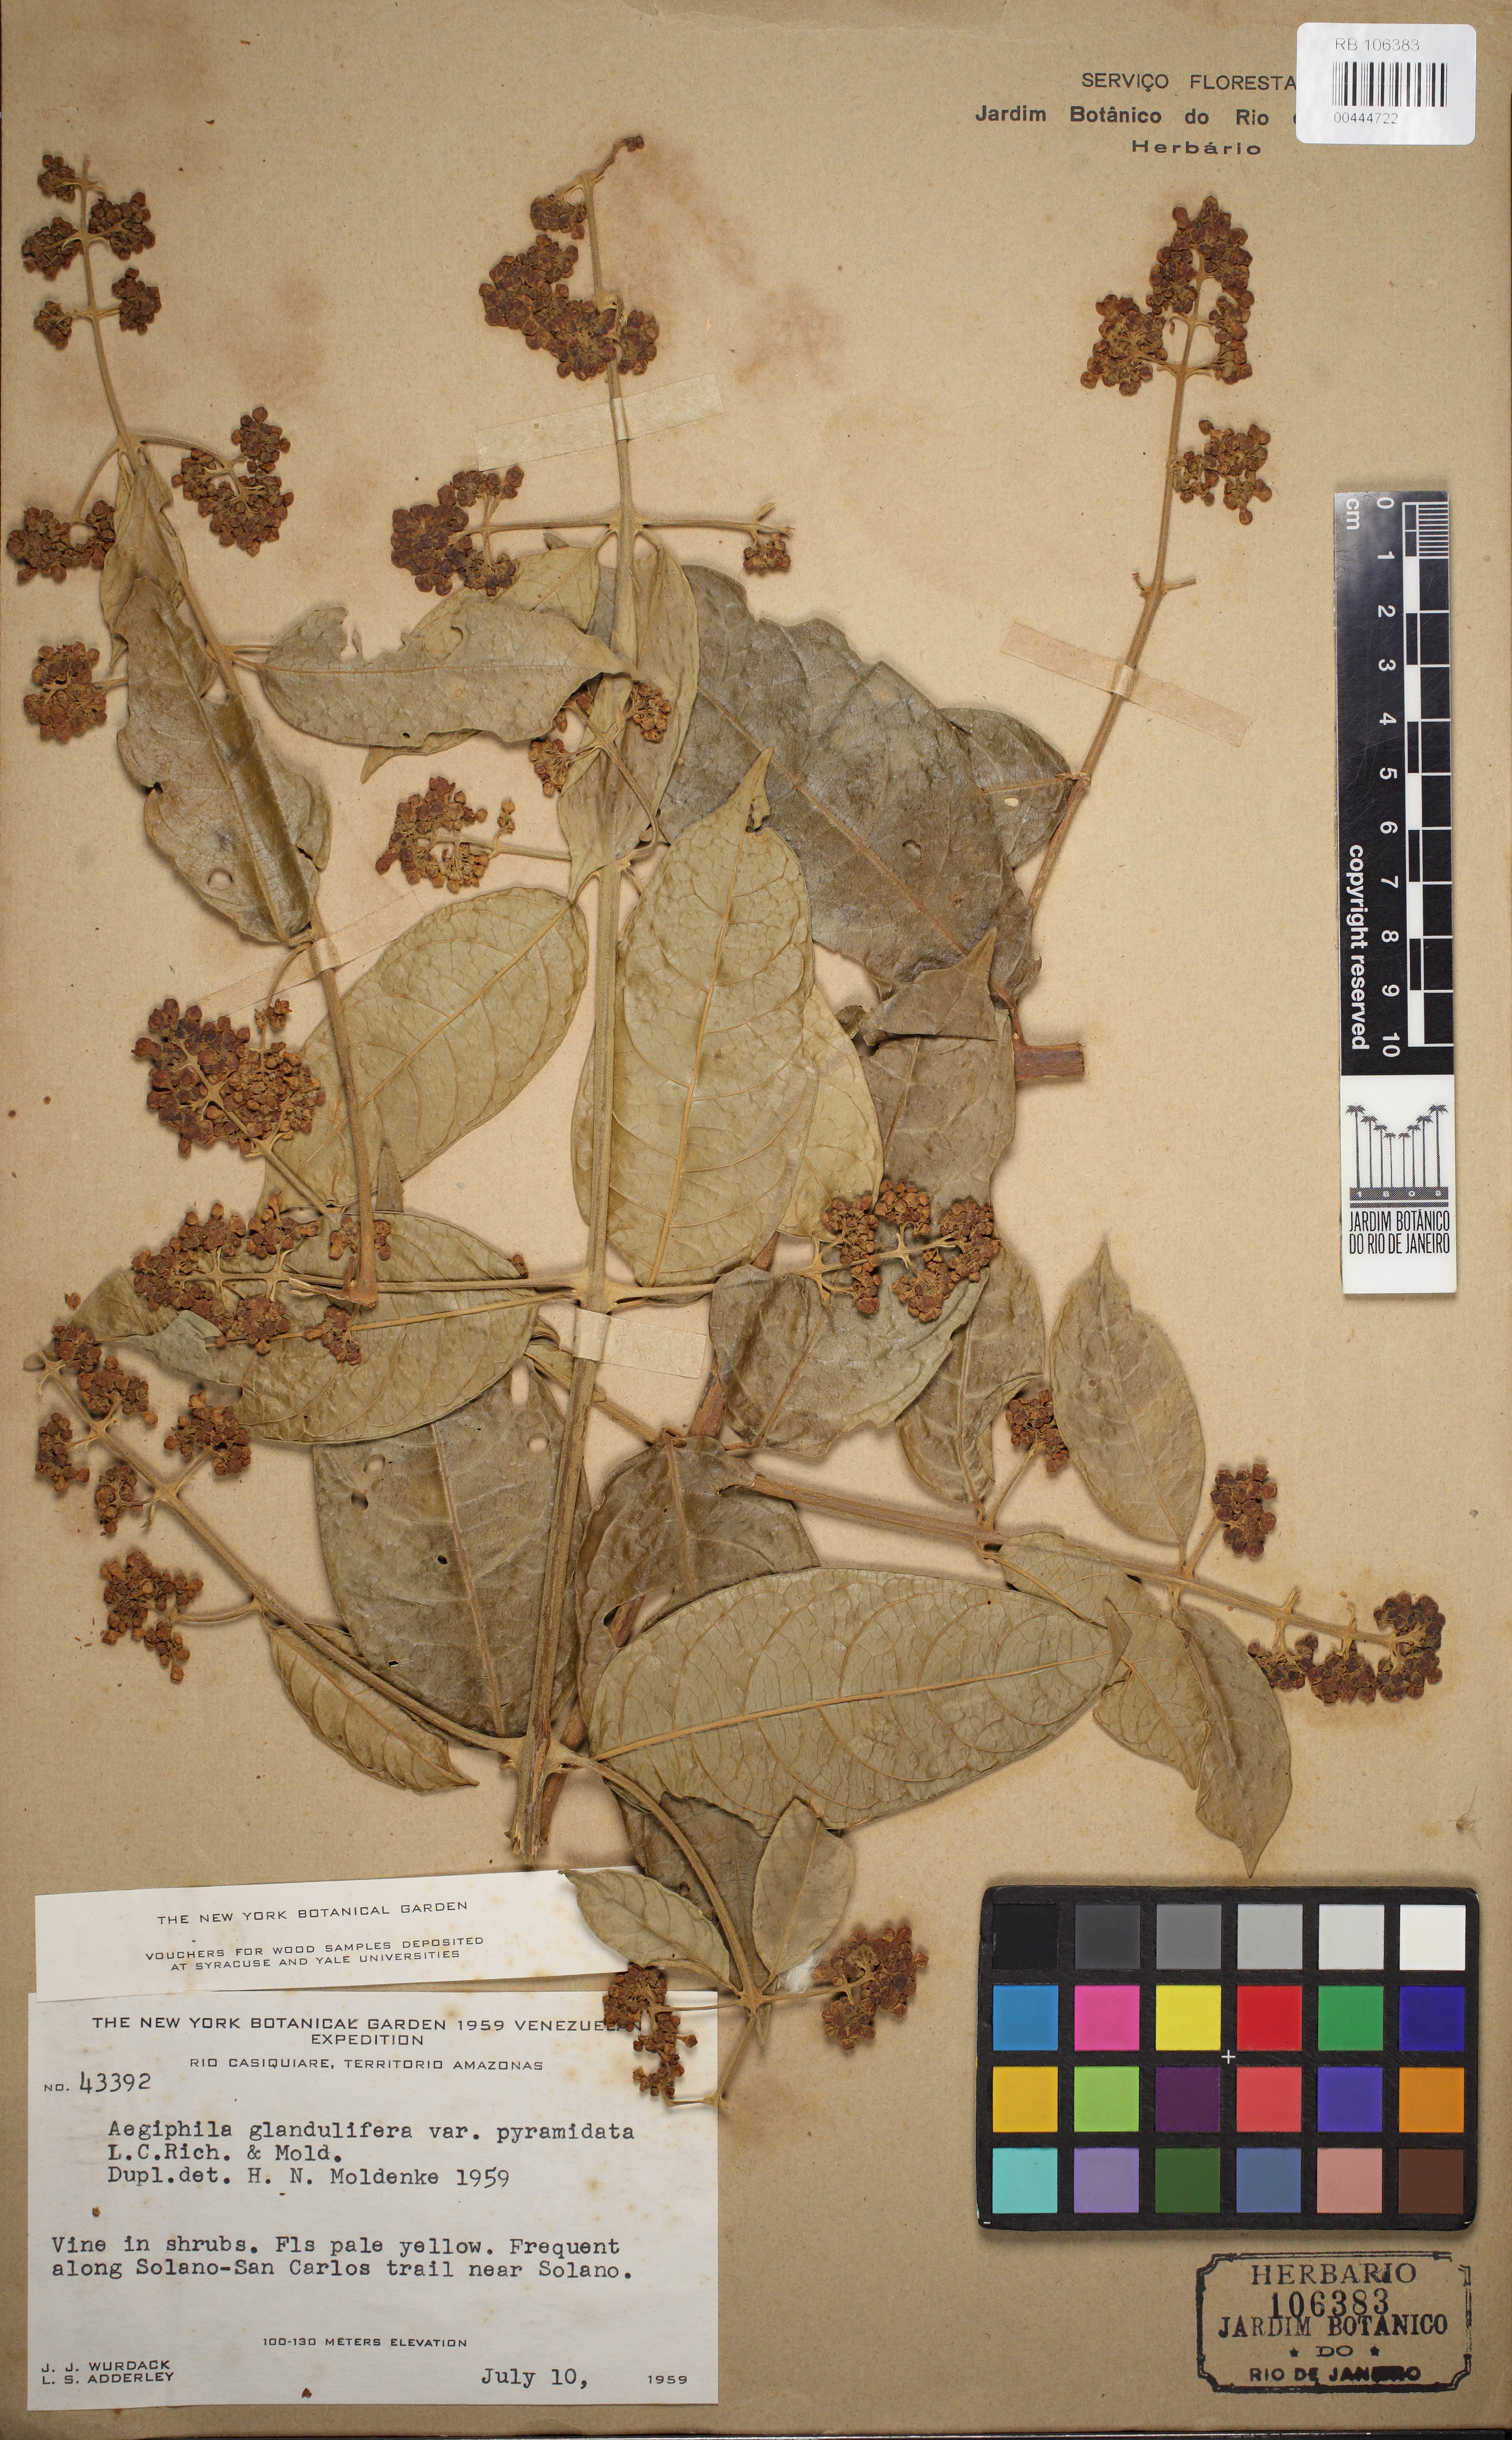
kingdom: Plantae
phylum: Tracheophyta
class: Magnoliopsida
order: Lamiales
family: Lamiaceae
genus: Aegiphila
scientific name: Aegiphila panamensis
